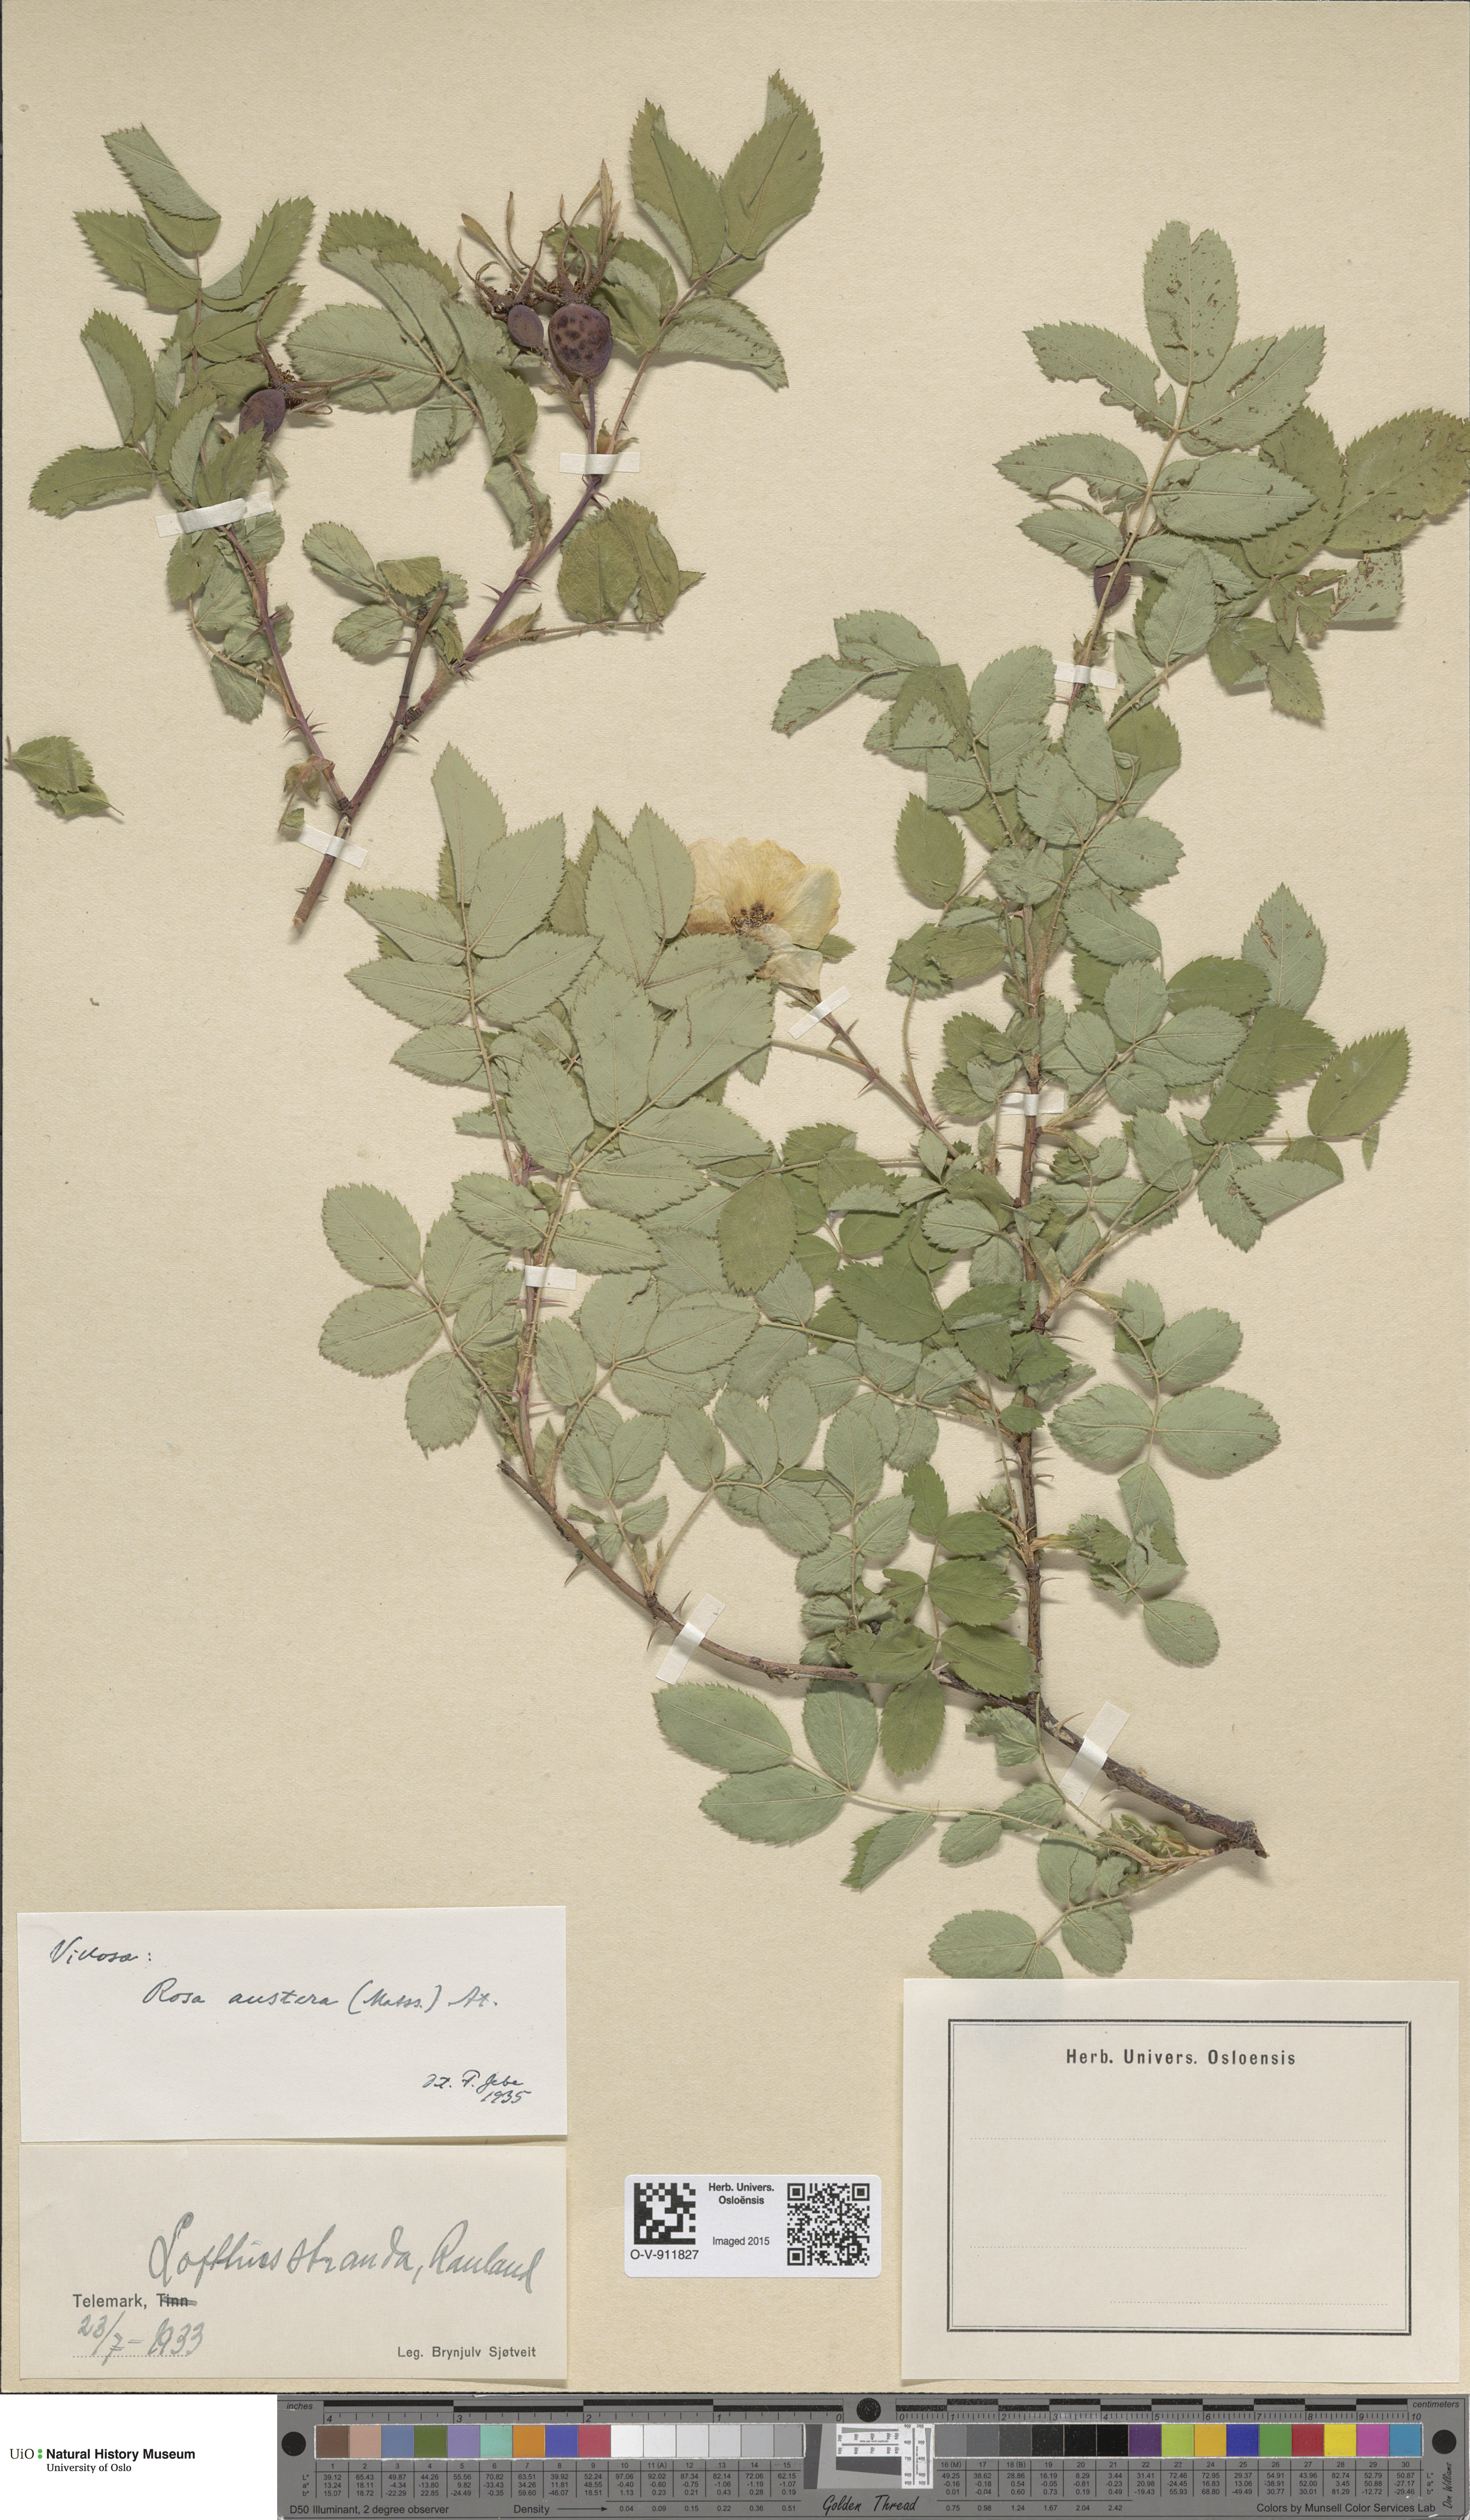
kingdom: Plantae
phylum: Tracheophyta
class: Magnoliopsida
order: Rosales
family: Rosaceae
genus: Rosa
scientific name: Rosa mollis
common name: Rose
